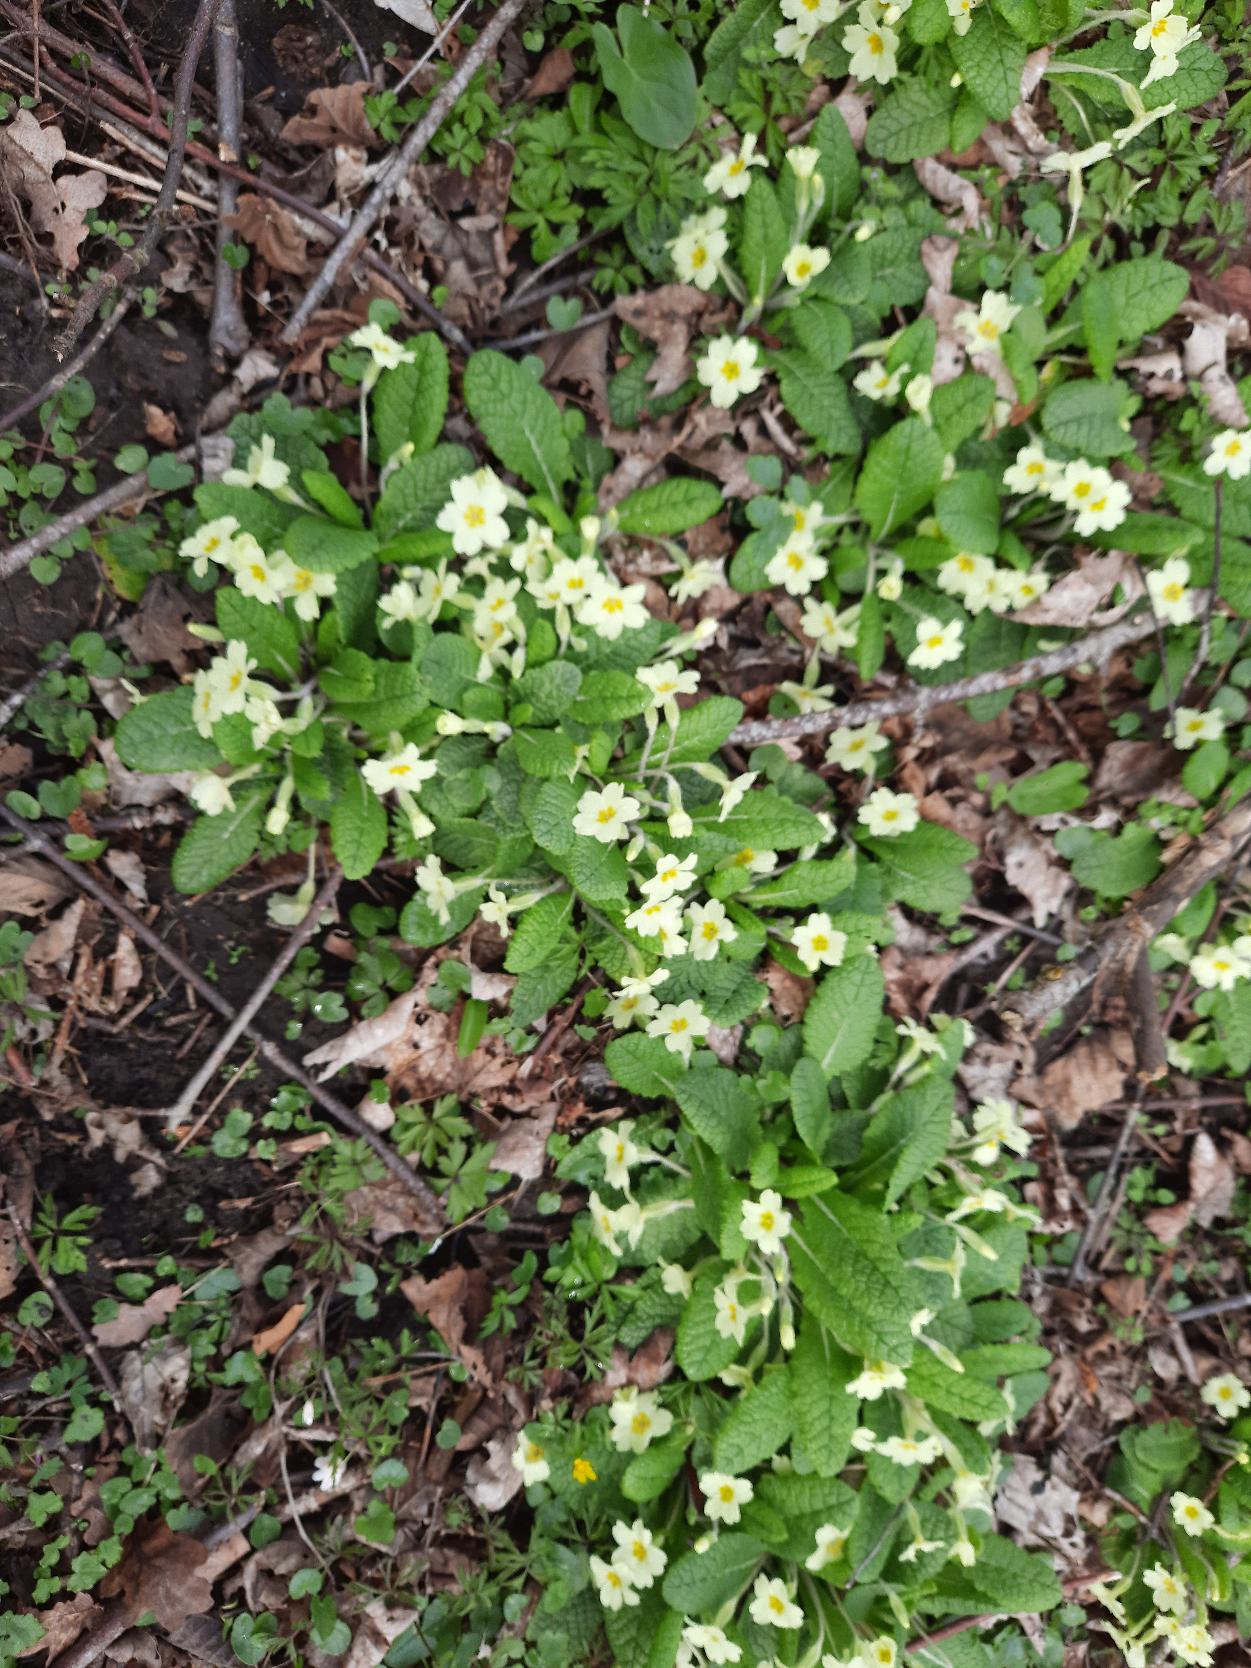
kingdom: Plantae
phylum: Tracheophyta
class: Magnoliopsida
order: Ericales
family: Primulaceae
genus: Primula
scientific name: Primula vulgaris
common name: Storblomstret kodriver
